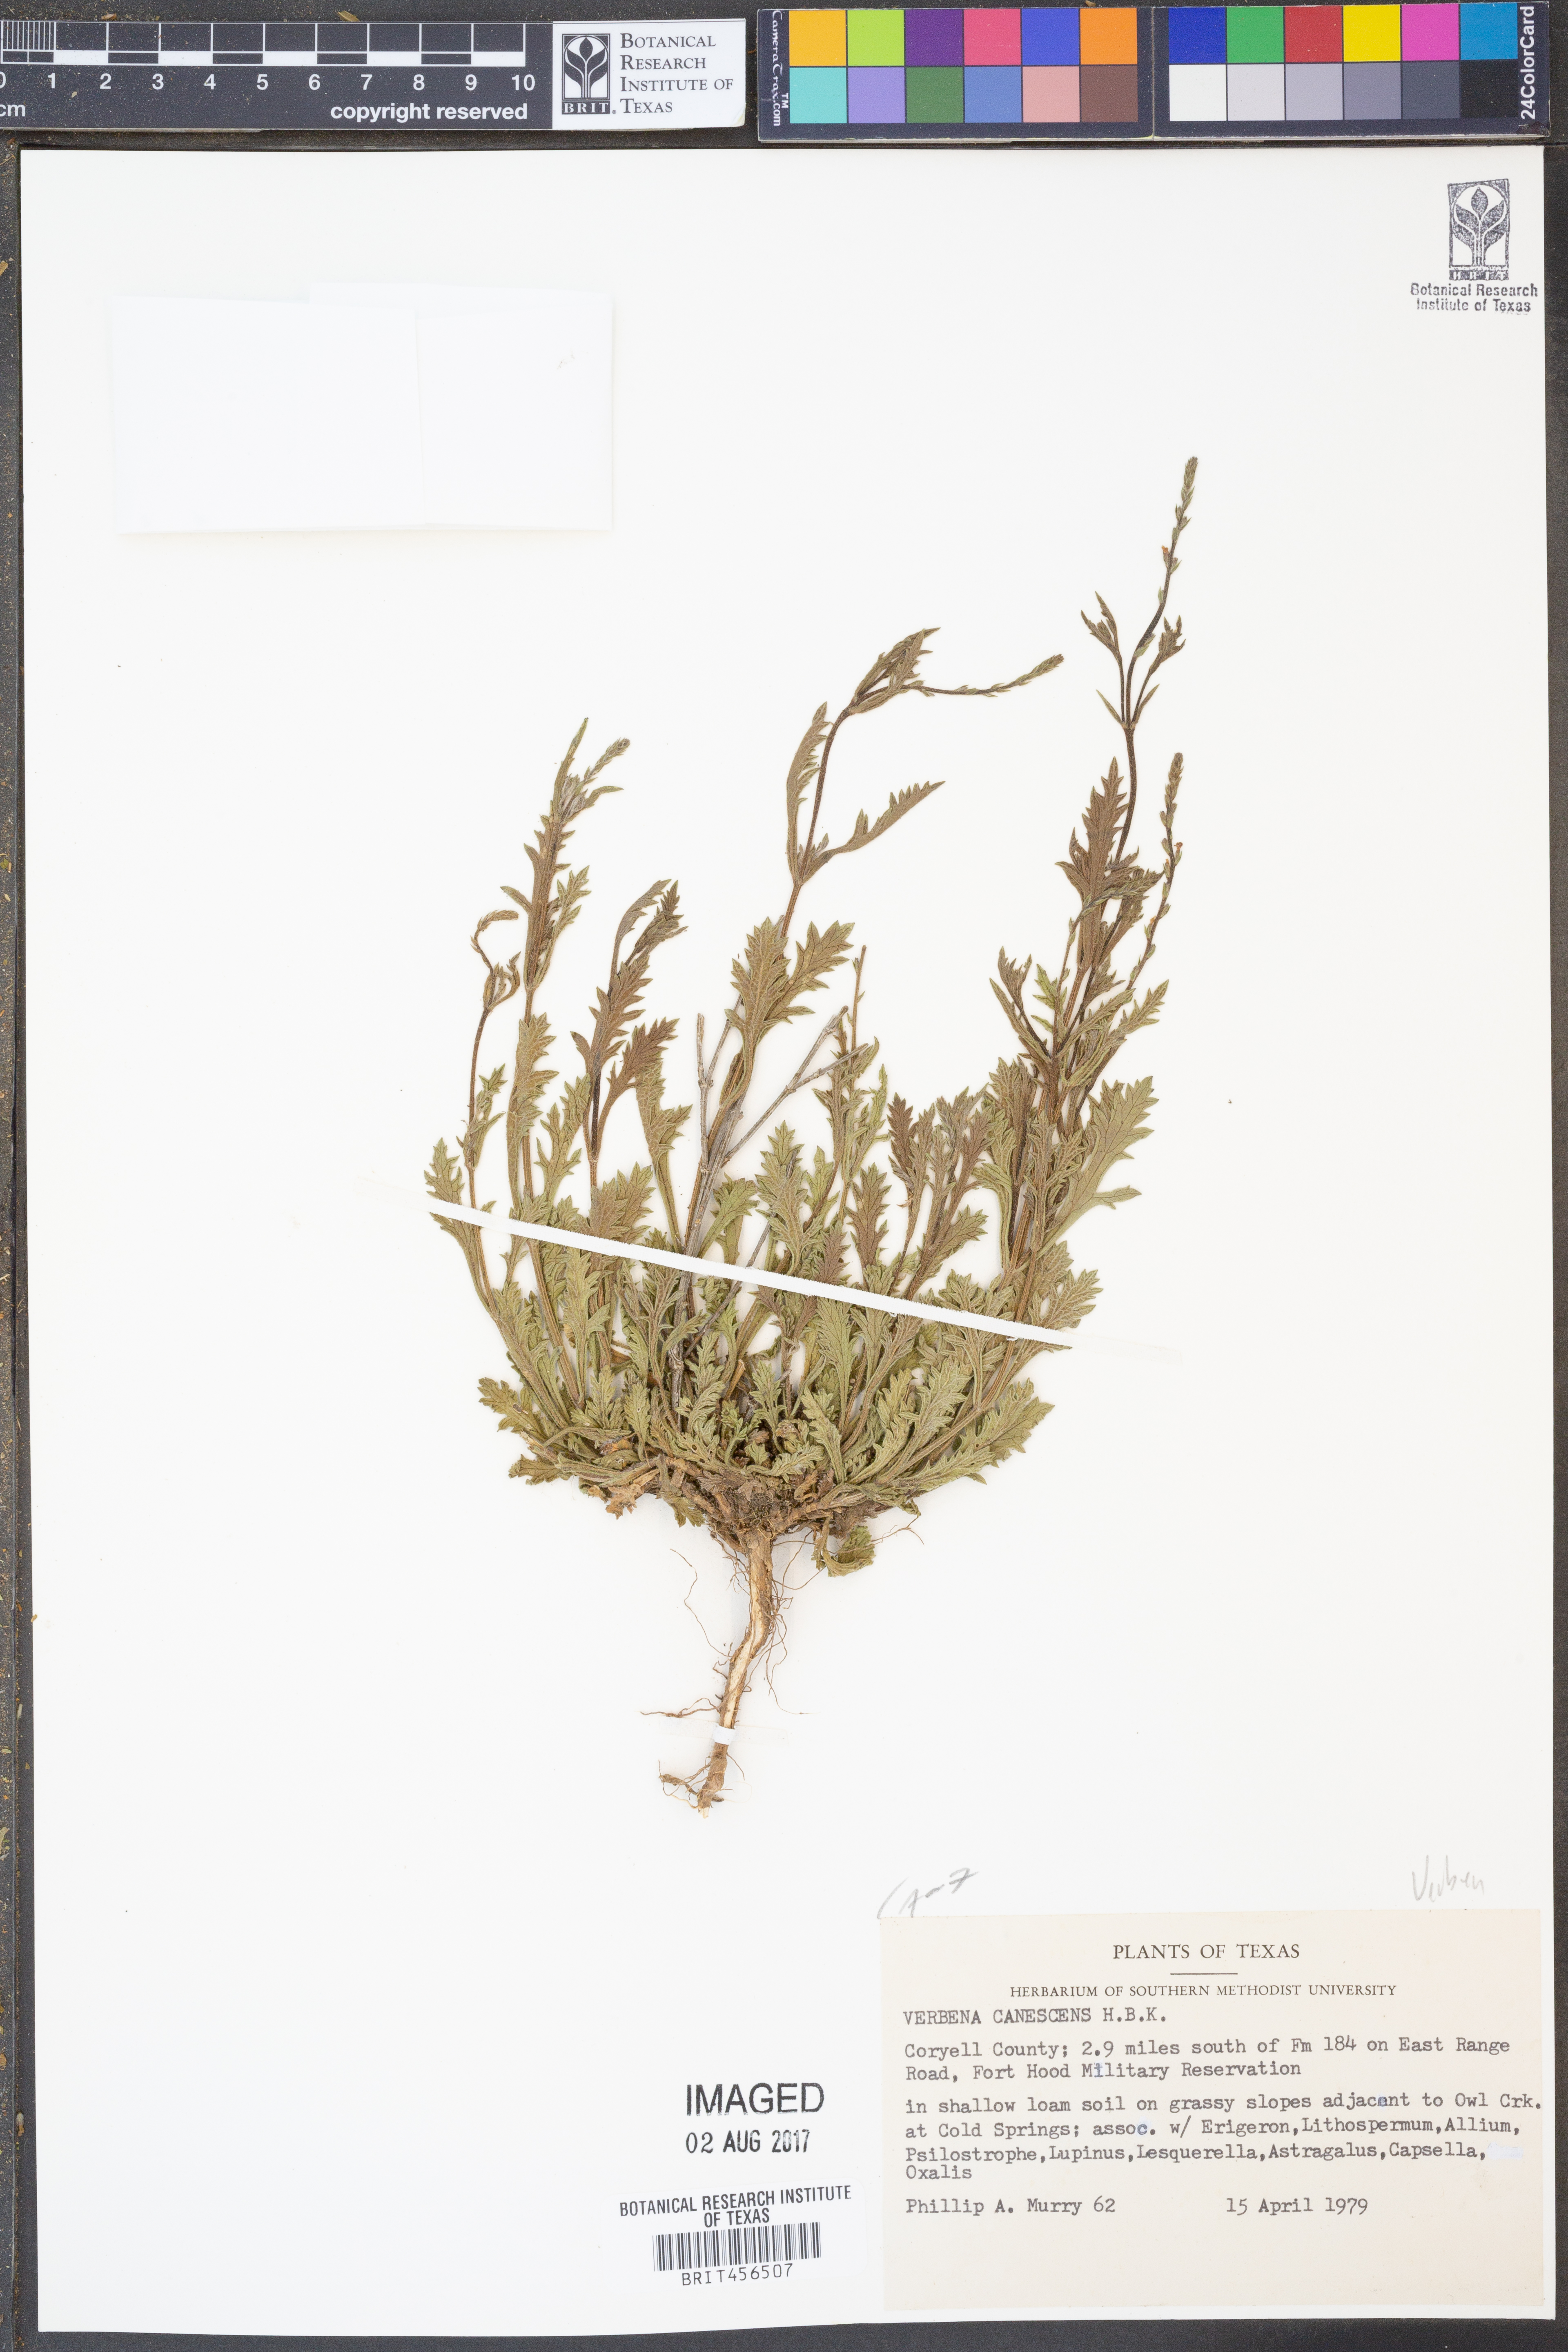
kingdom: Plantae
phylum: Tracheophyta
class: Magnoliopsida
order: Lamiales
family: Verbenaceae
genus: Verbena
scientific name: Verbena canescens
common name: Gray vervain
